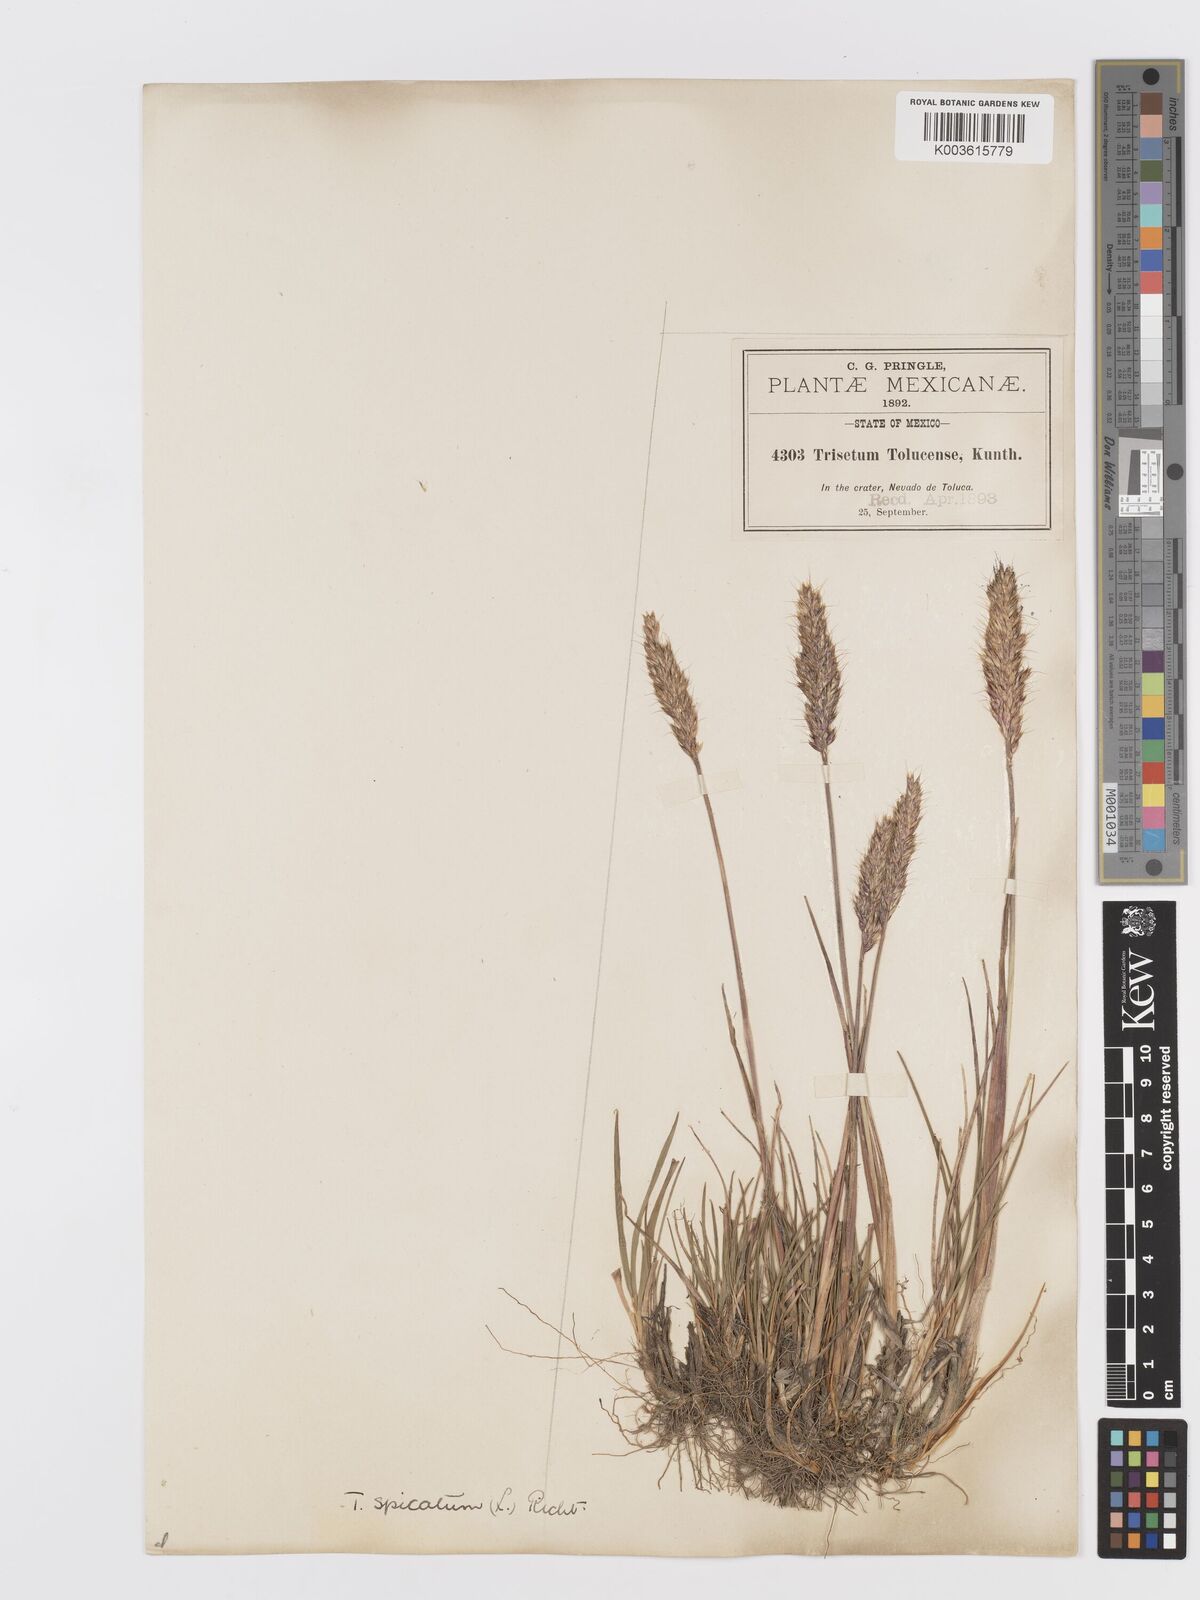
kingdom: Plantae
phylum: Tracheophyta
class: Liliopsida
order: Poales
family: Poaceae
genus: Koeleria
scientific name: Koeleria spicata
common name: Mountain trisetum
